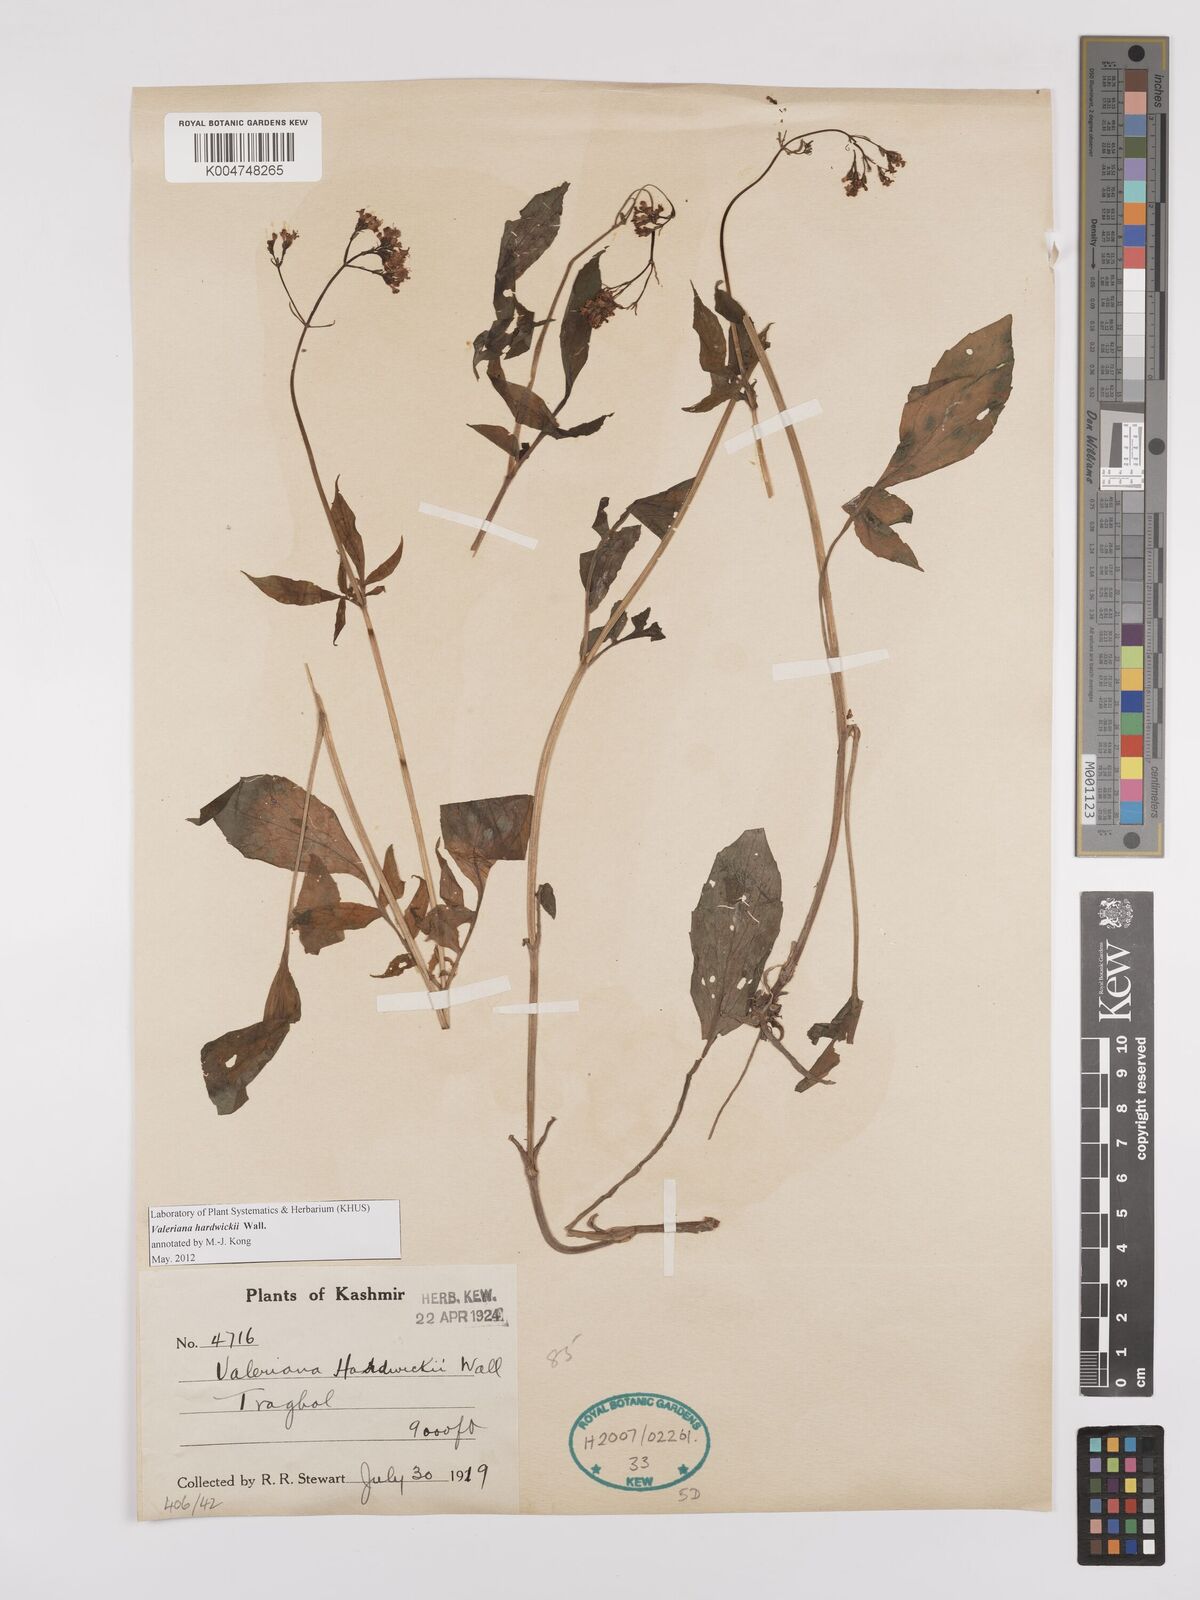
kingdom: Plantae
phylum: Tracheophyta
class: Magnoliopsida
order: Dipsacales
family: Caprifoliaceae
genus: Valeriana
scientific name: Valeriana hardwickei
